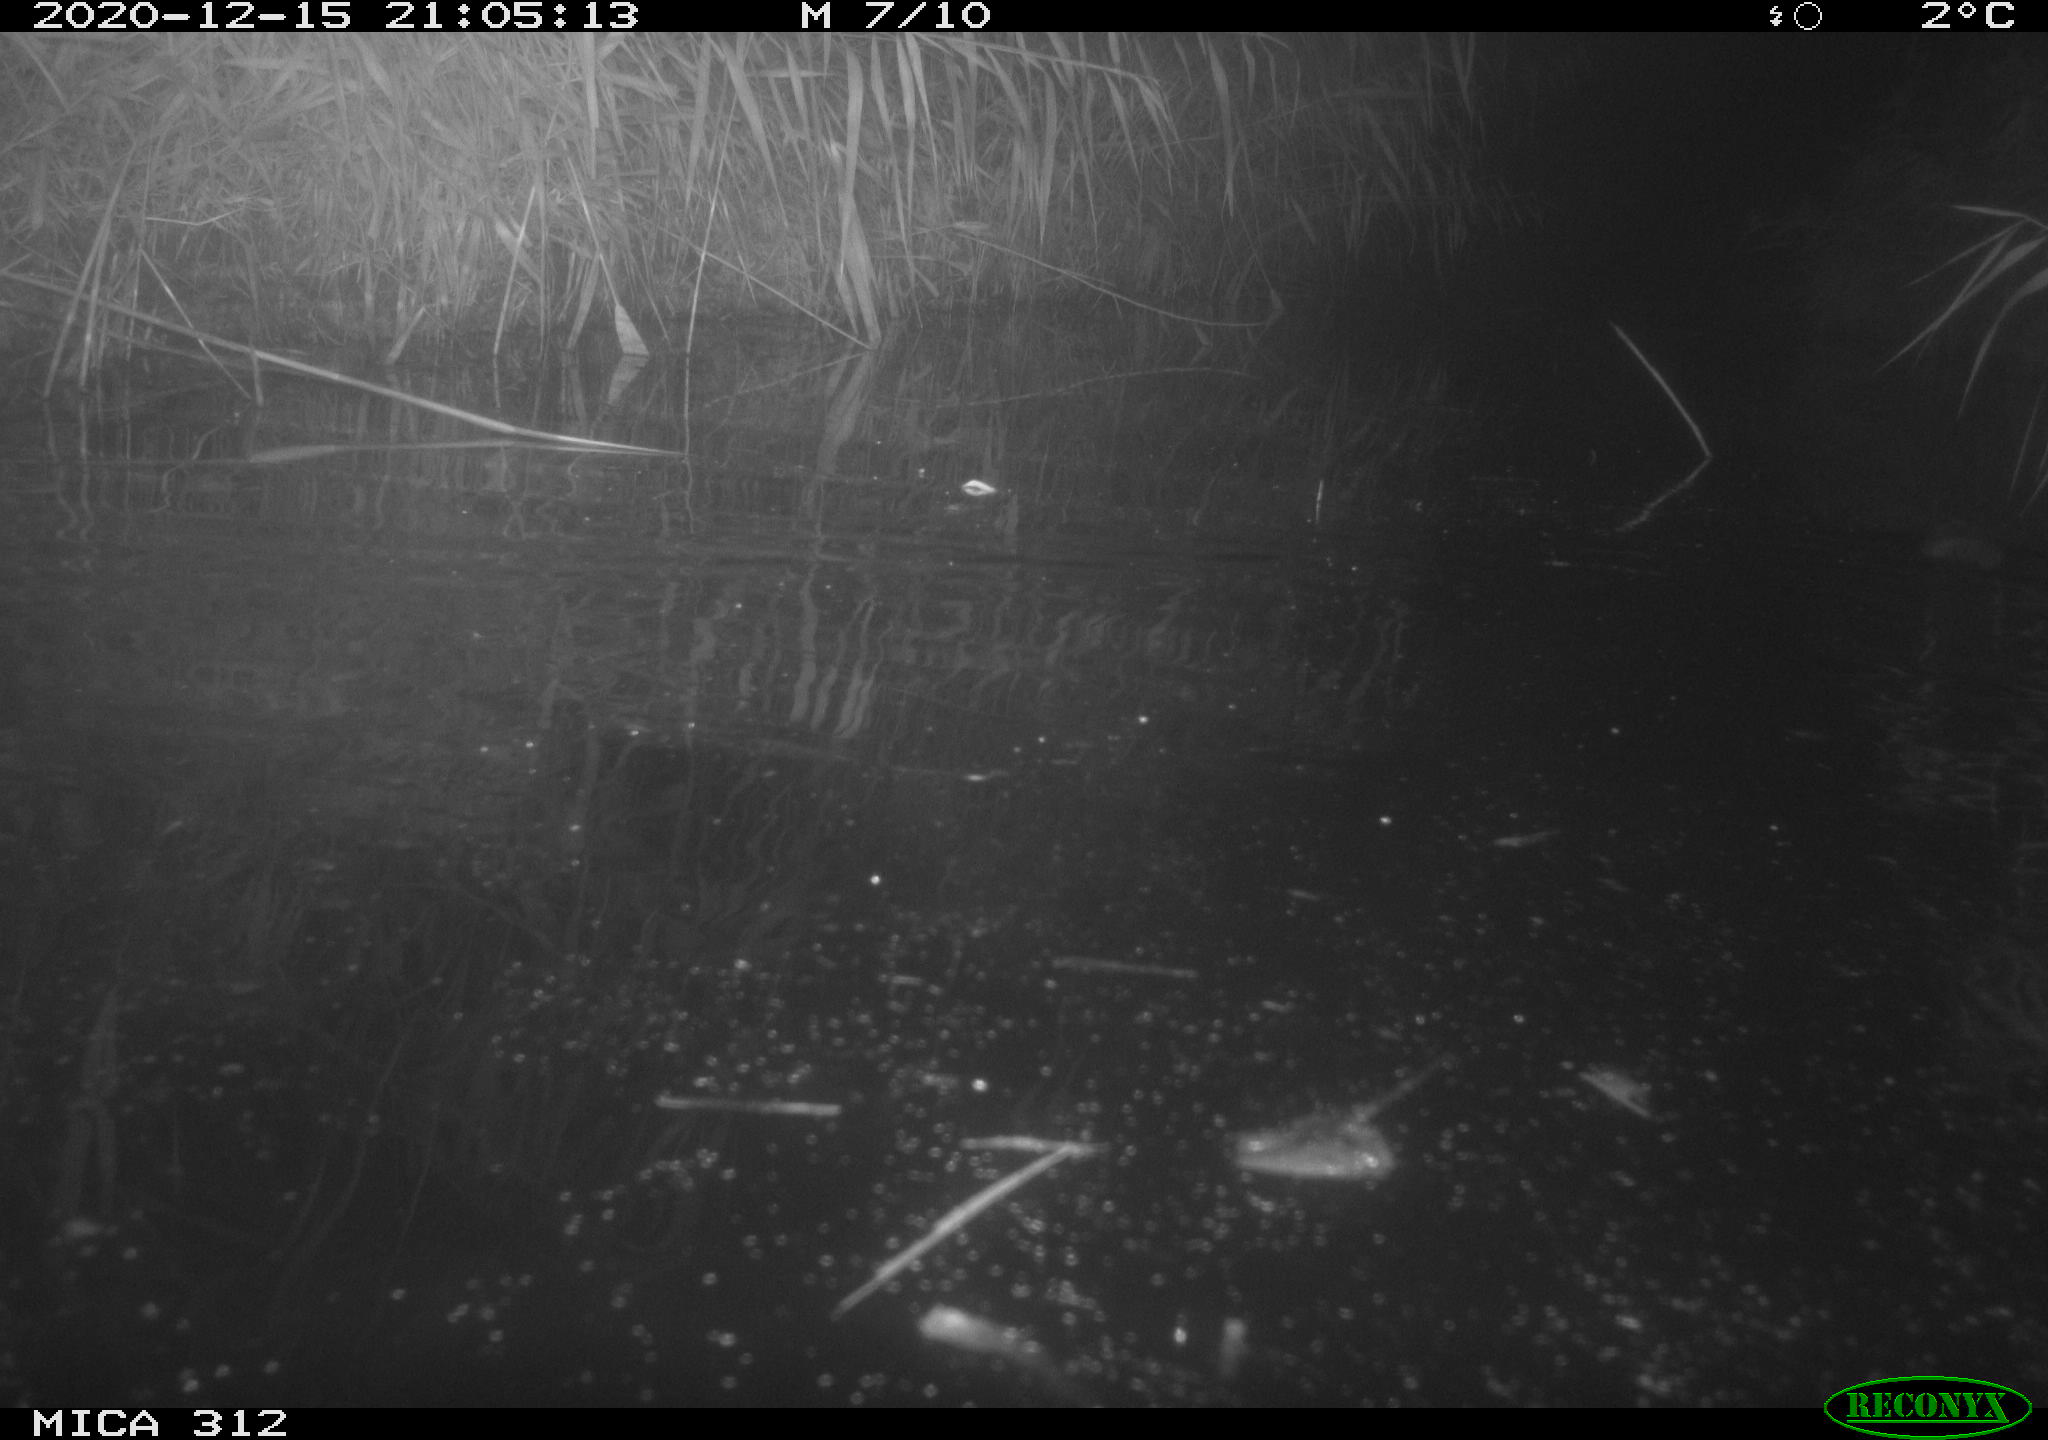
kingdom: Animalia
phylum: Chordata
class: Mammalia
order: Rodentia
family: Muridae
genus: Rattus
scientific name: Rattus norvegicus
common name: Brown rat
